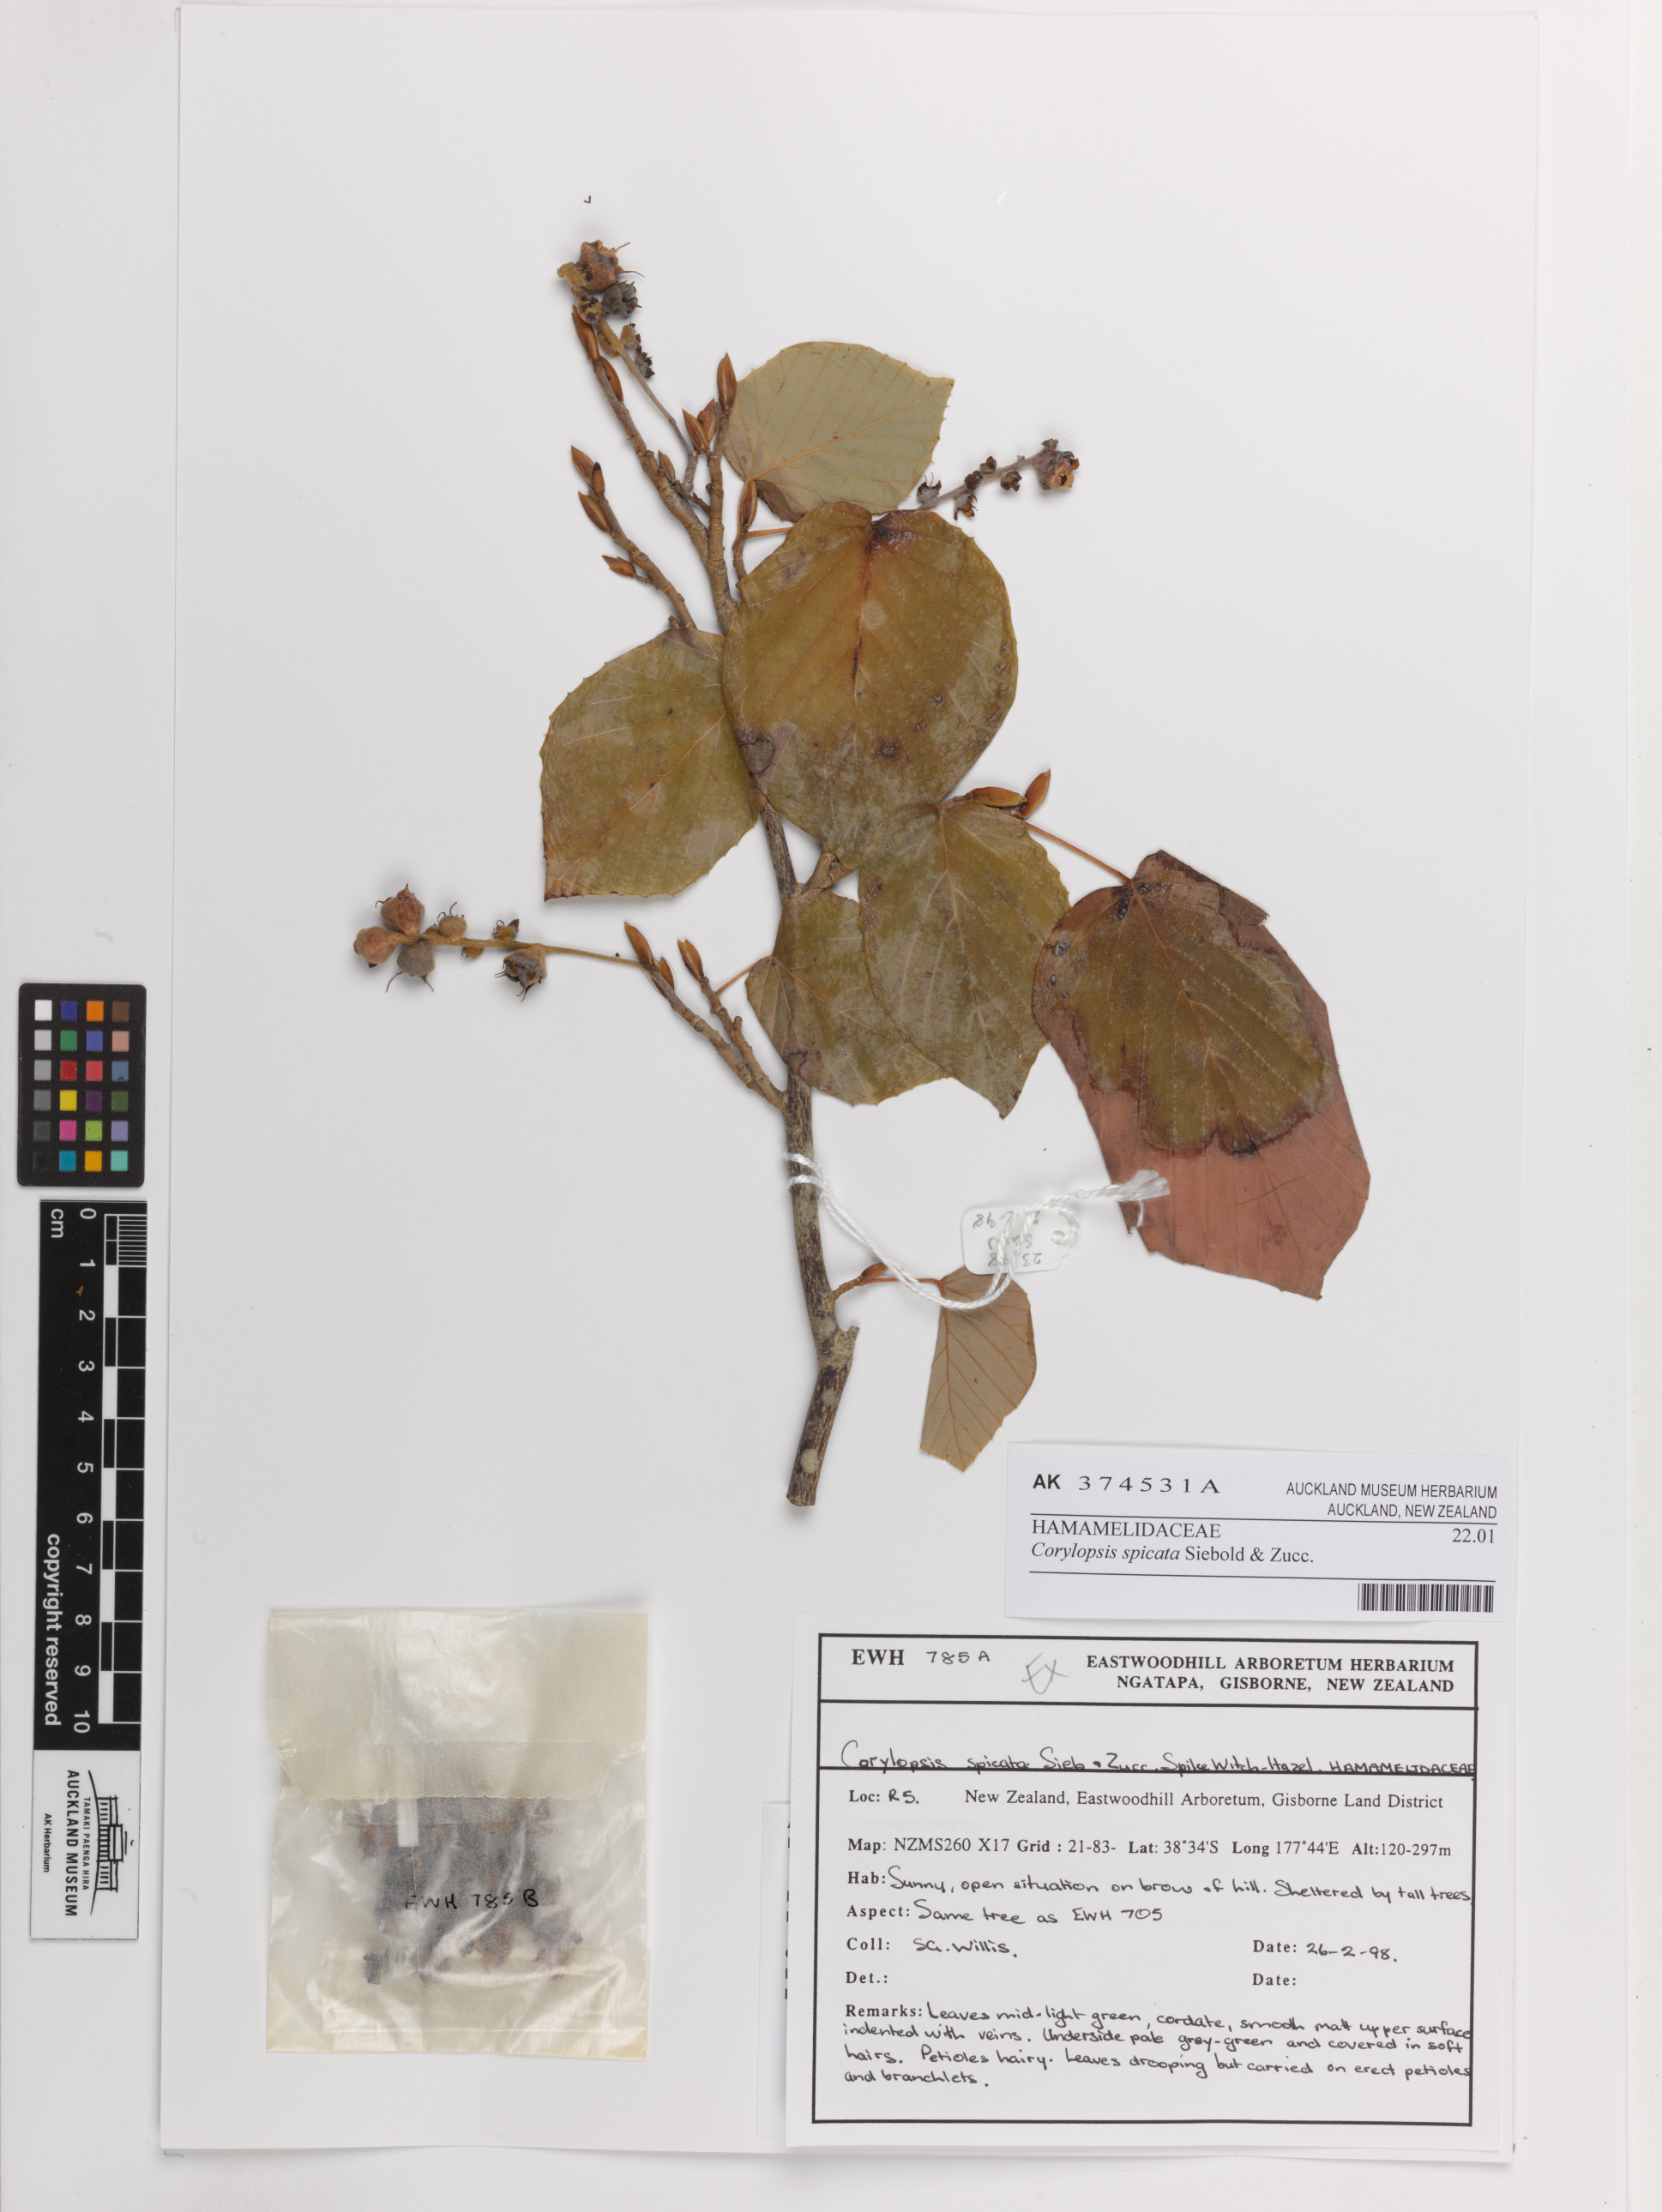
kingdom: Plantae
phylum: Tracheophyta
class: Magnoliopsida
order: Saxifragales
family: Hamamelidaceae
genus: Corylopsis
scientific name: Corylopsis spicata
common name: Spike winter-hazel
